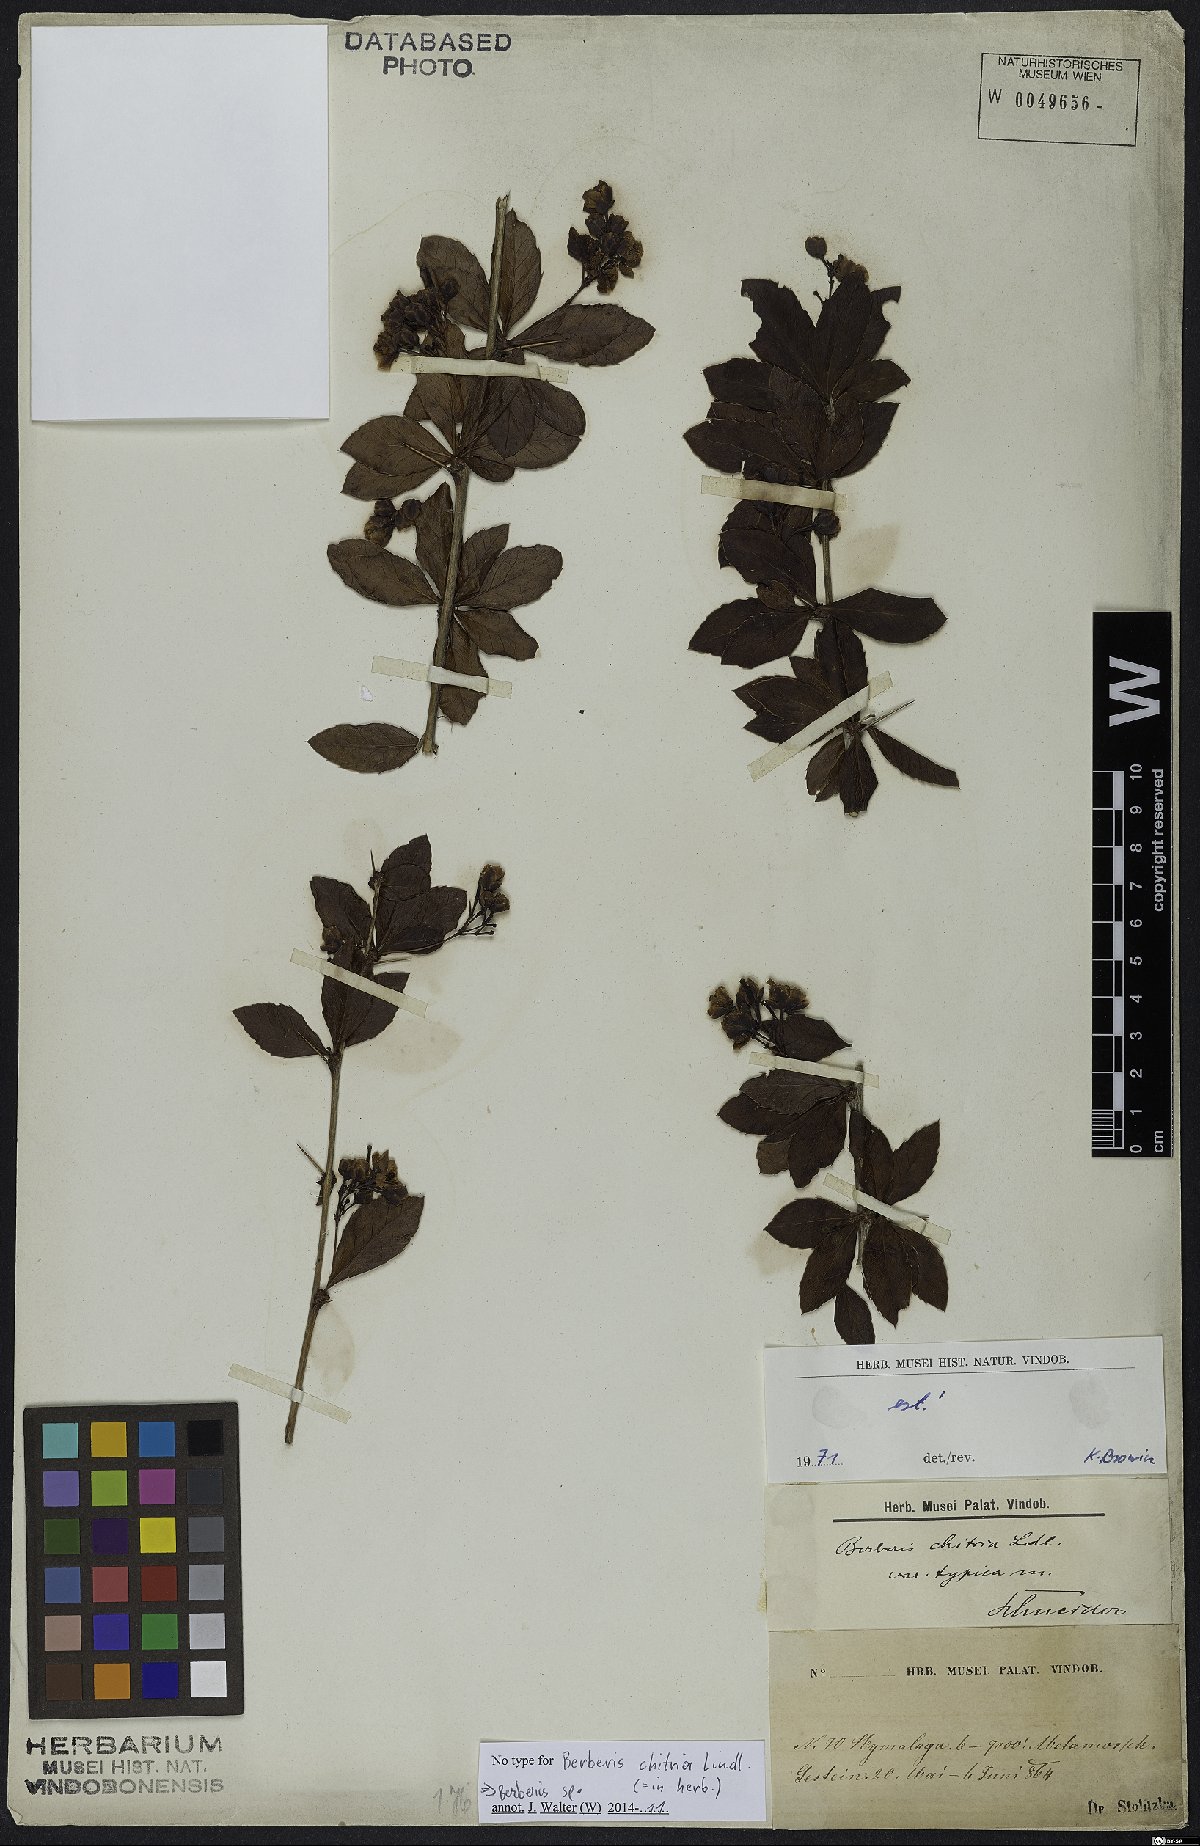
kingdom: Plantae
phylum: Tracheophyta
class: Magnoliopsida
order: Ranunculales
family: Berberidaceae
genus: Berberis
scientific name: Berberis
